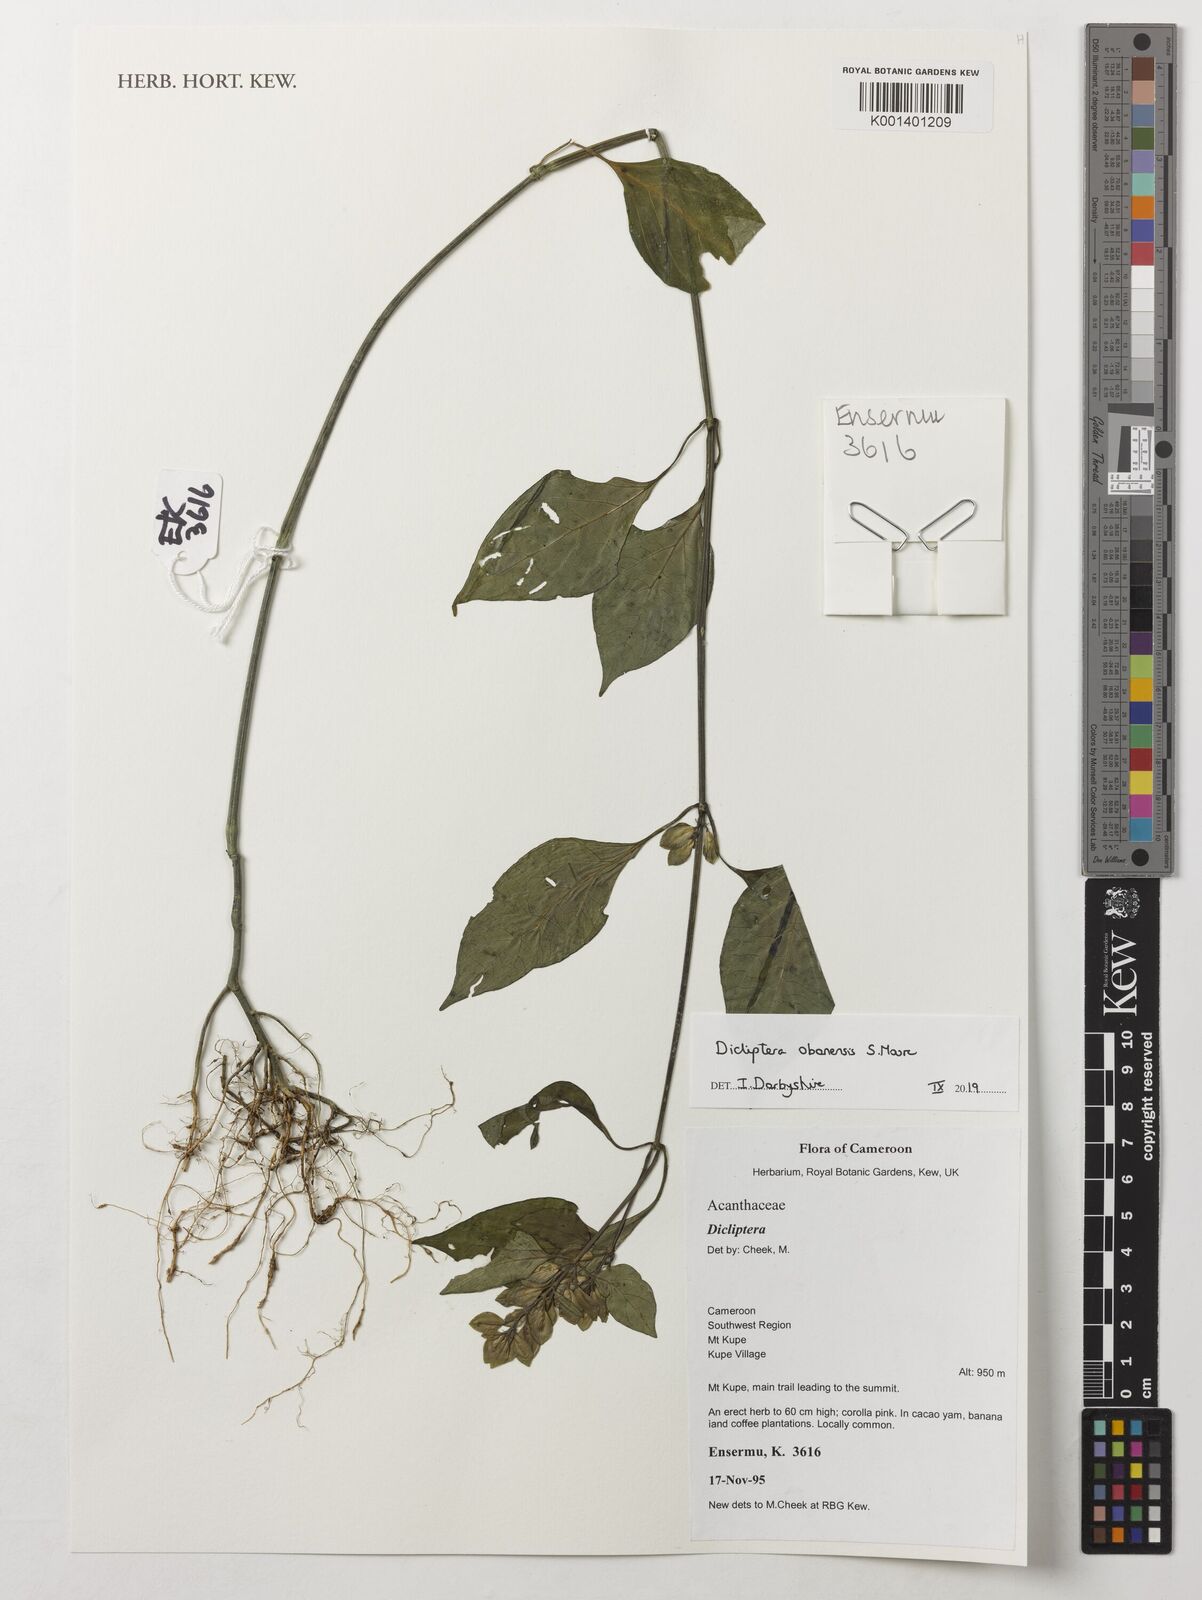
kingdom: Plantae
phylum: Tracheophyta
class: Magnoliopsida
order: Lamiales
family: Acanthaceae
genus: Dicliptera
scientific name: Dicliptera elliotii
